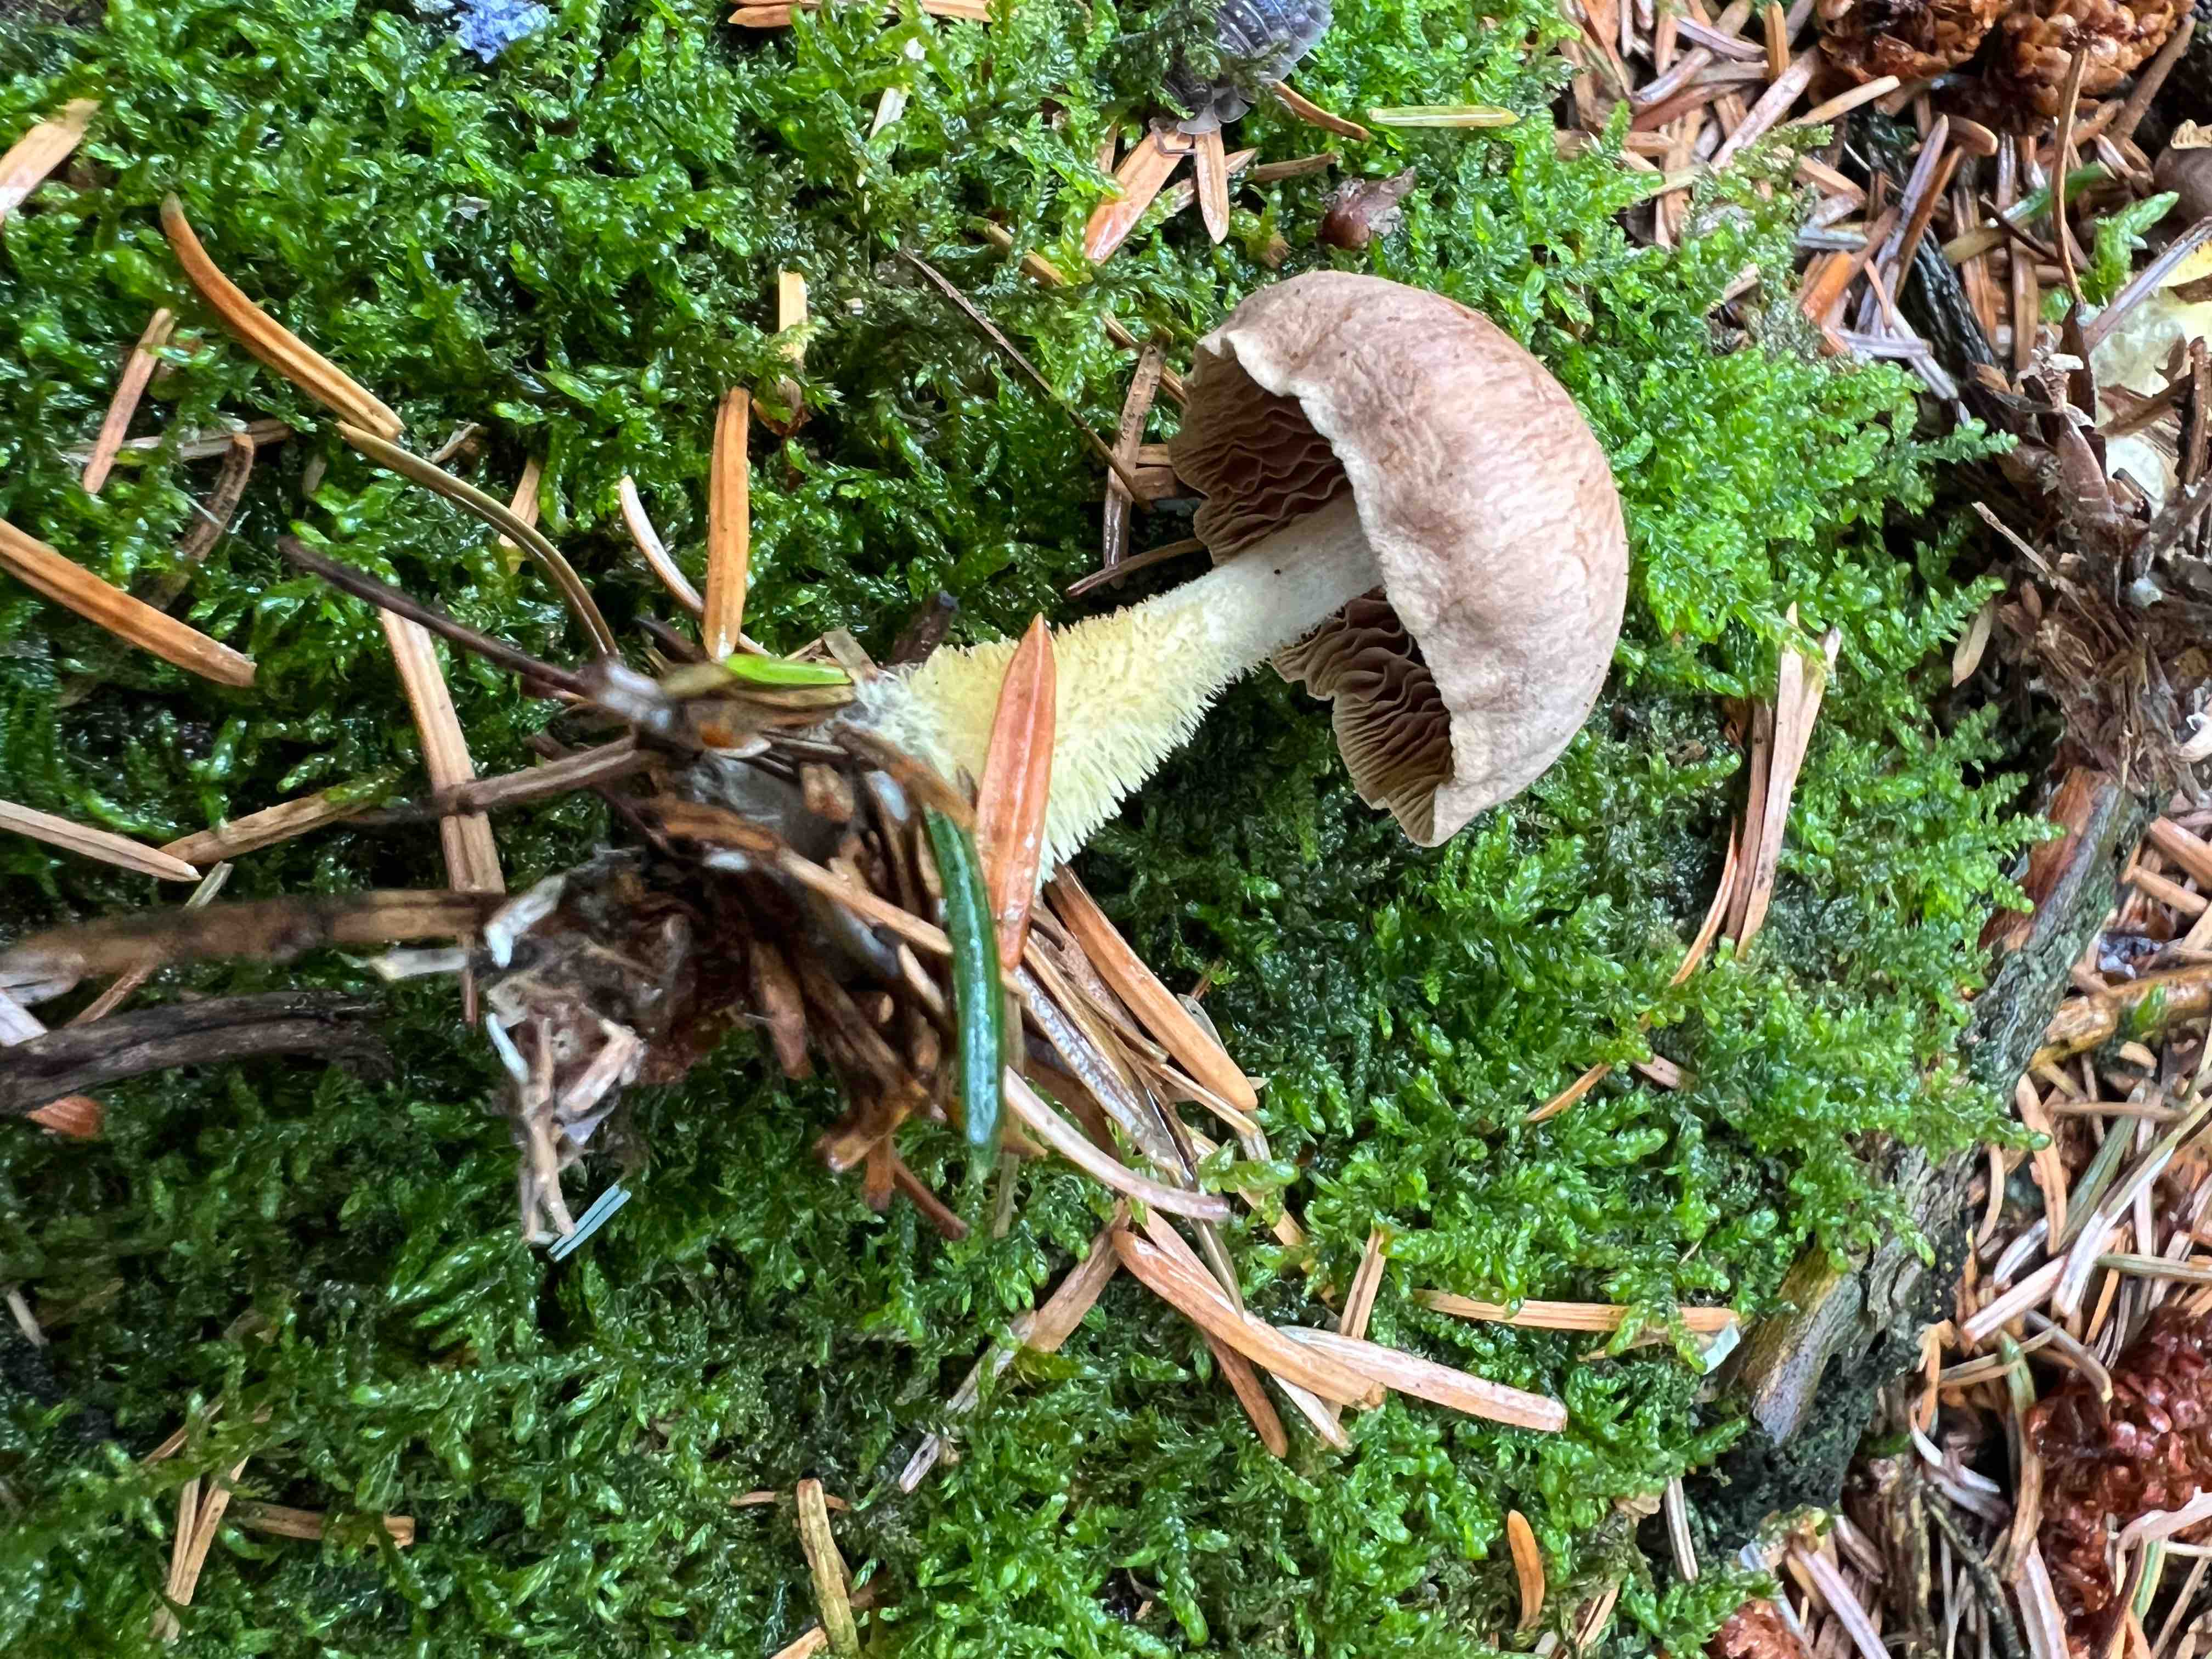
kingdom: Fungi
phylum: Basidiomycota
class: Agaricomycetes
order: Agaricales
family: Omphalotaceae
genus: Collybiopsis
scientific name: Collybiopsis peronata
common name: bestøvlet fladhat
